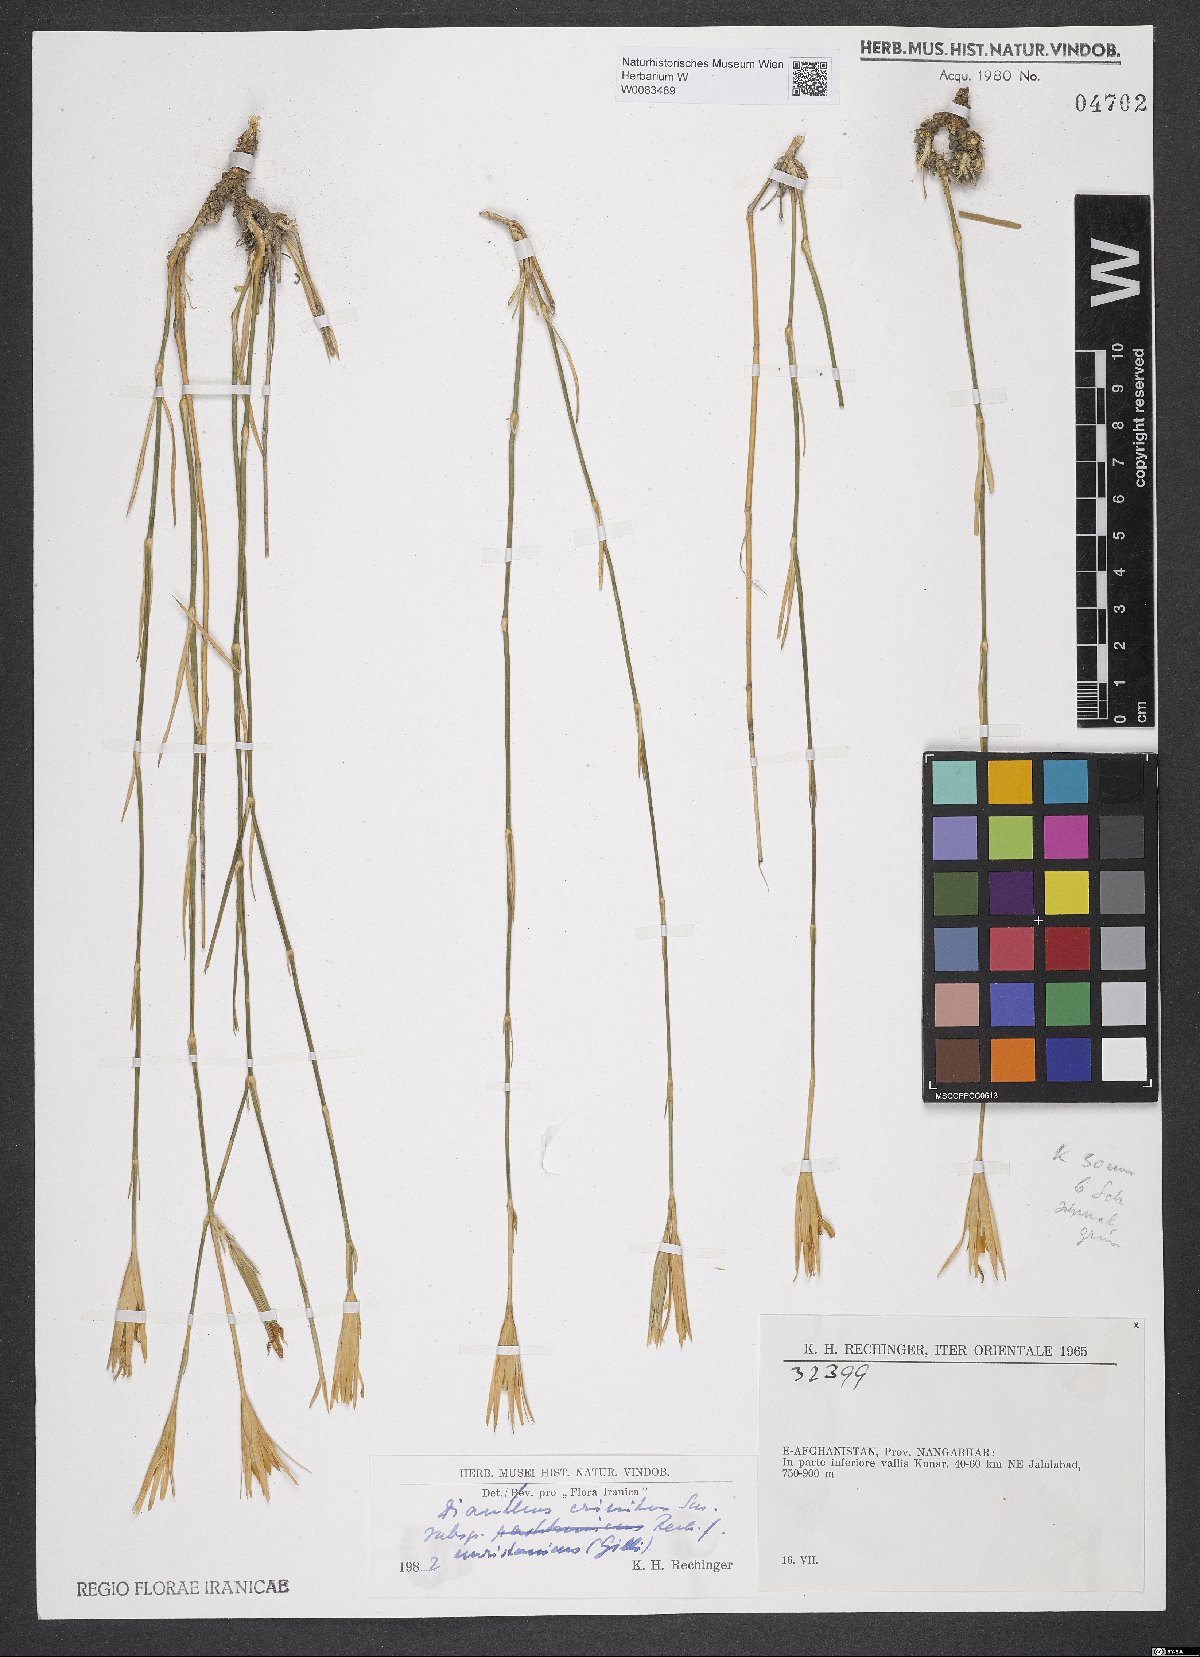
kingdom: Plantae
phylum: Tracheophyta
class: Magnoliopsida
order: Caryophyllales
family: Caryophyllaceae
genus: Dianthus
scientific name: Dianthus crinitus
